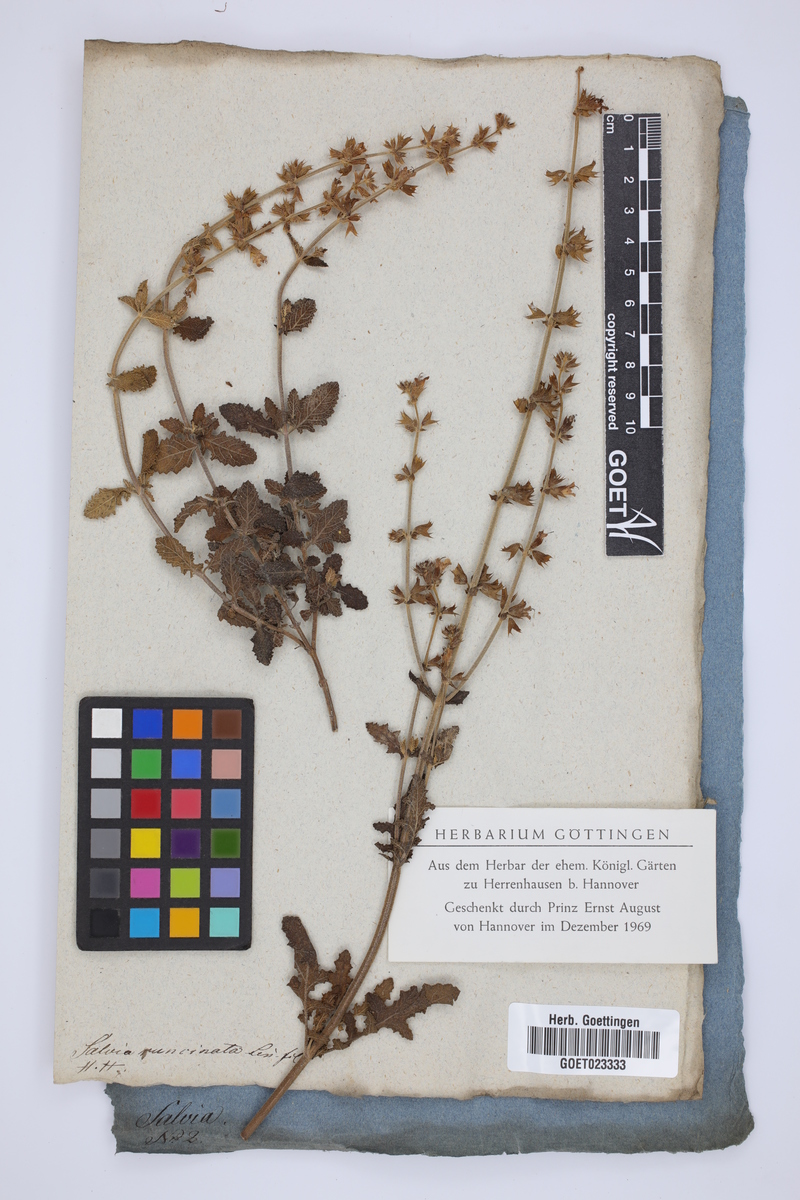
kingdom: Plantae
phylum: Tracheophyta
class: Magnoliopsida
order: Lamiales
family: Lamiaceae
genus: Salvia
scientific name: Salvia runcinata
